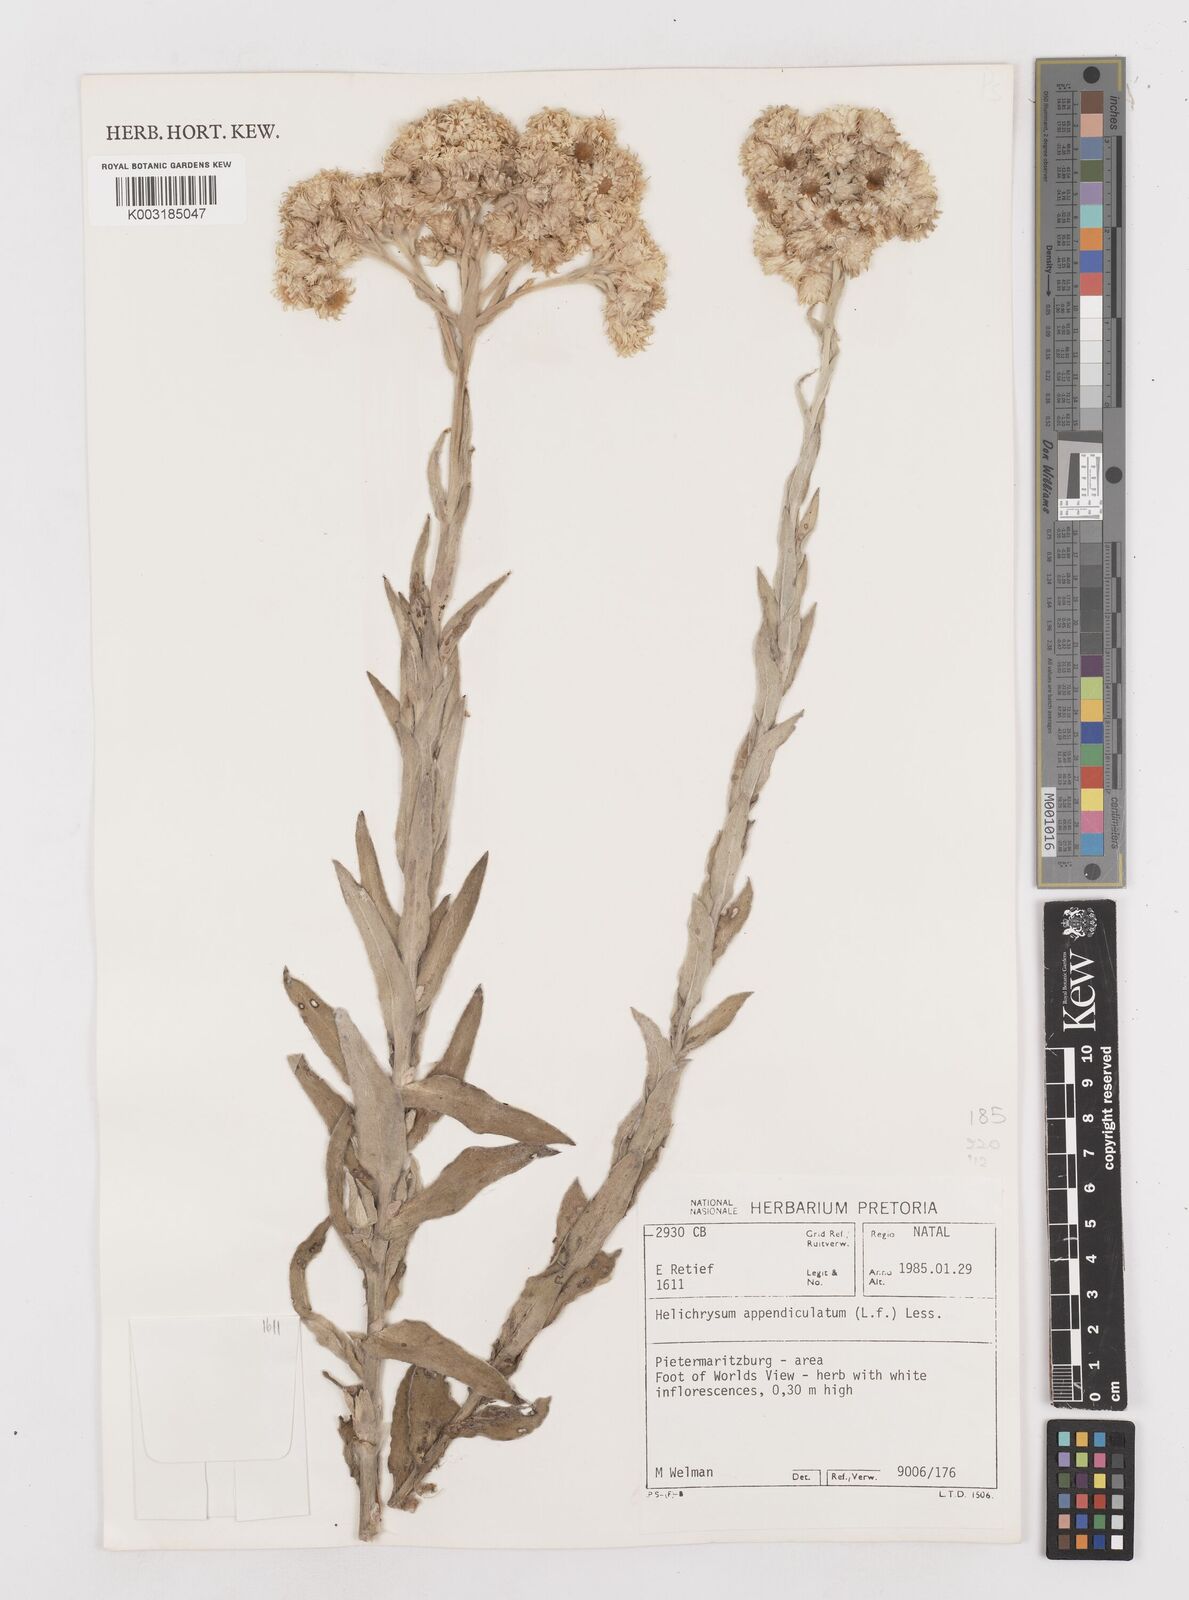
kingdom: Plantae
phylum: Tracheophyta
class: Magnoliopsida
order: Asterales
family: Asteraceae
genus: Helichrysum
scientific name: Helichrysum appendiculatum
